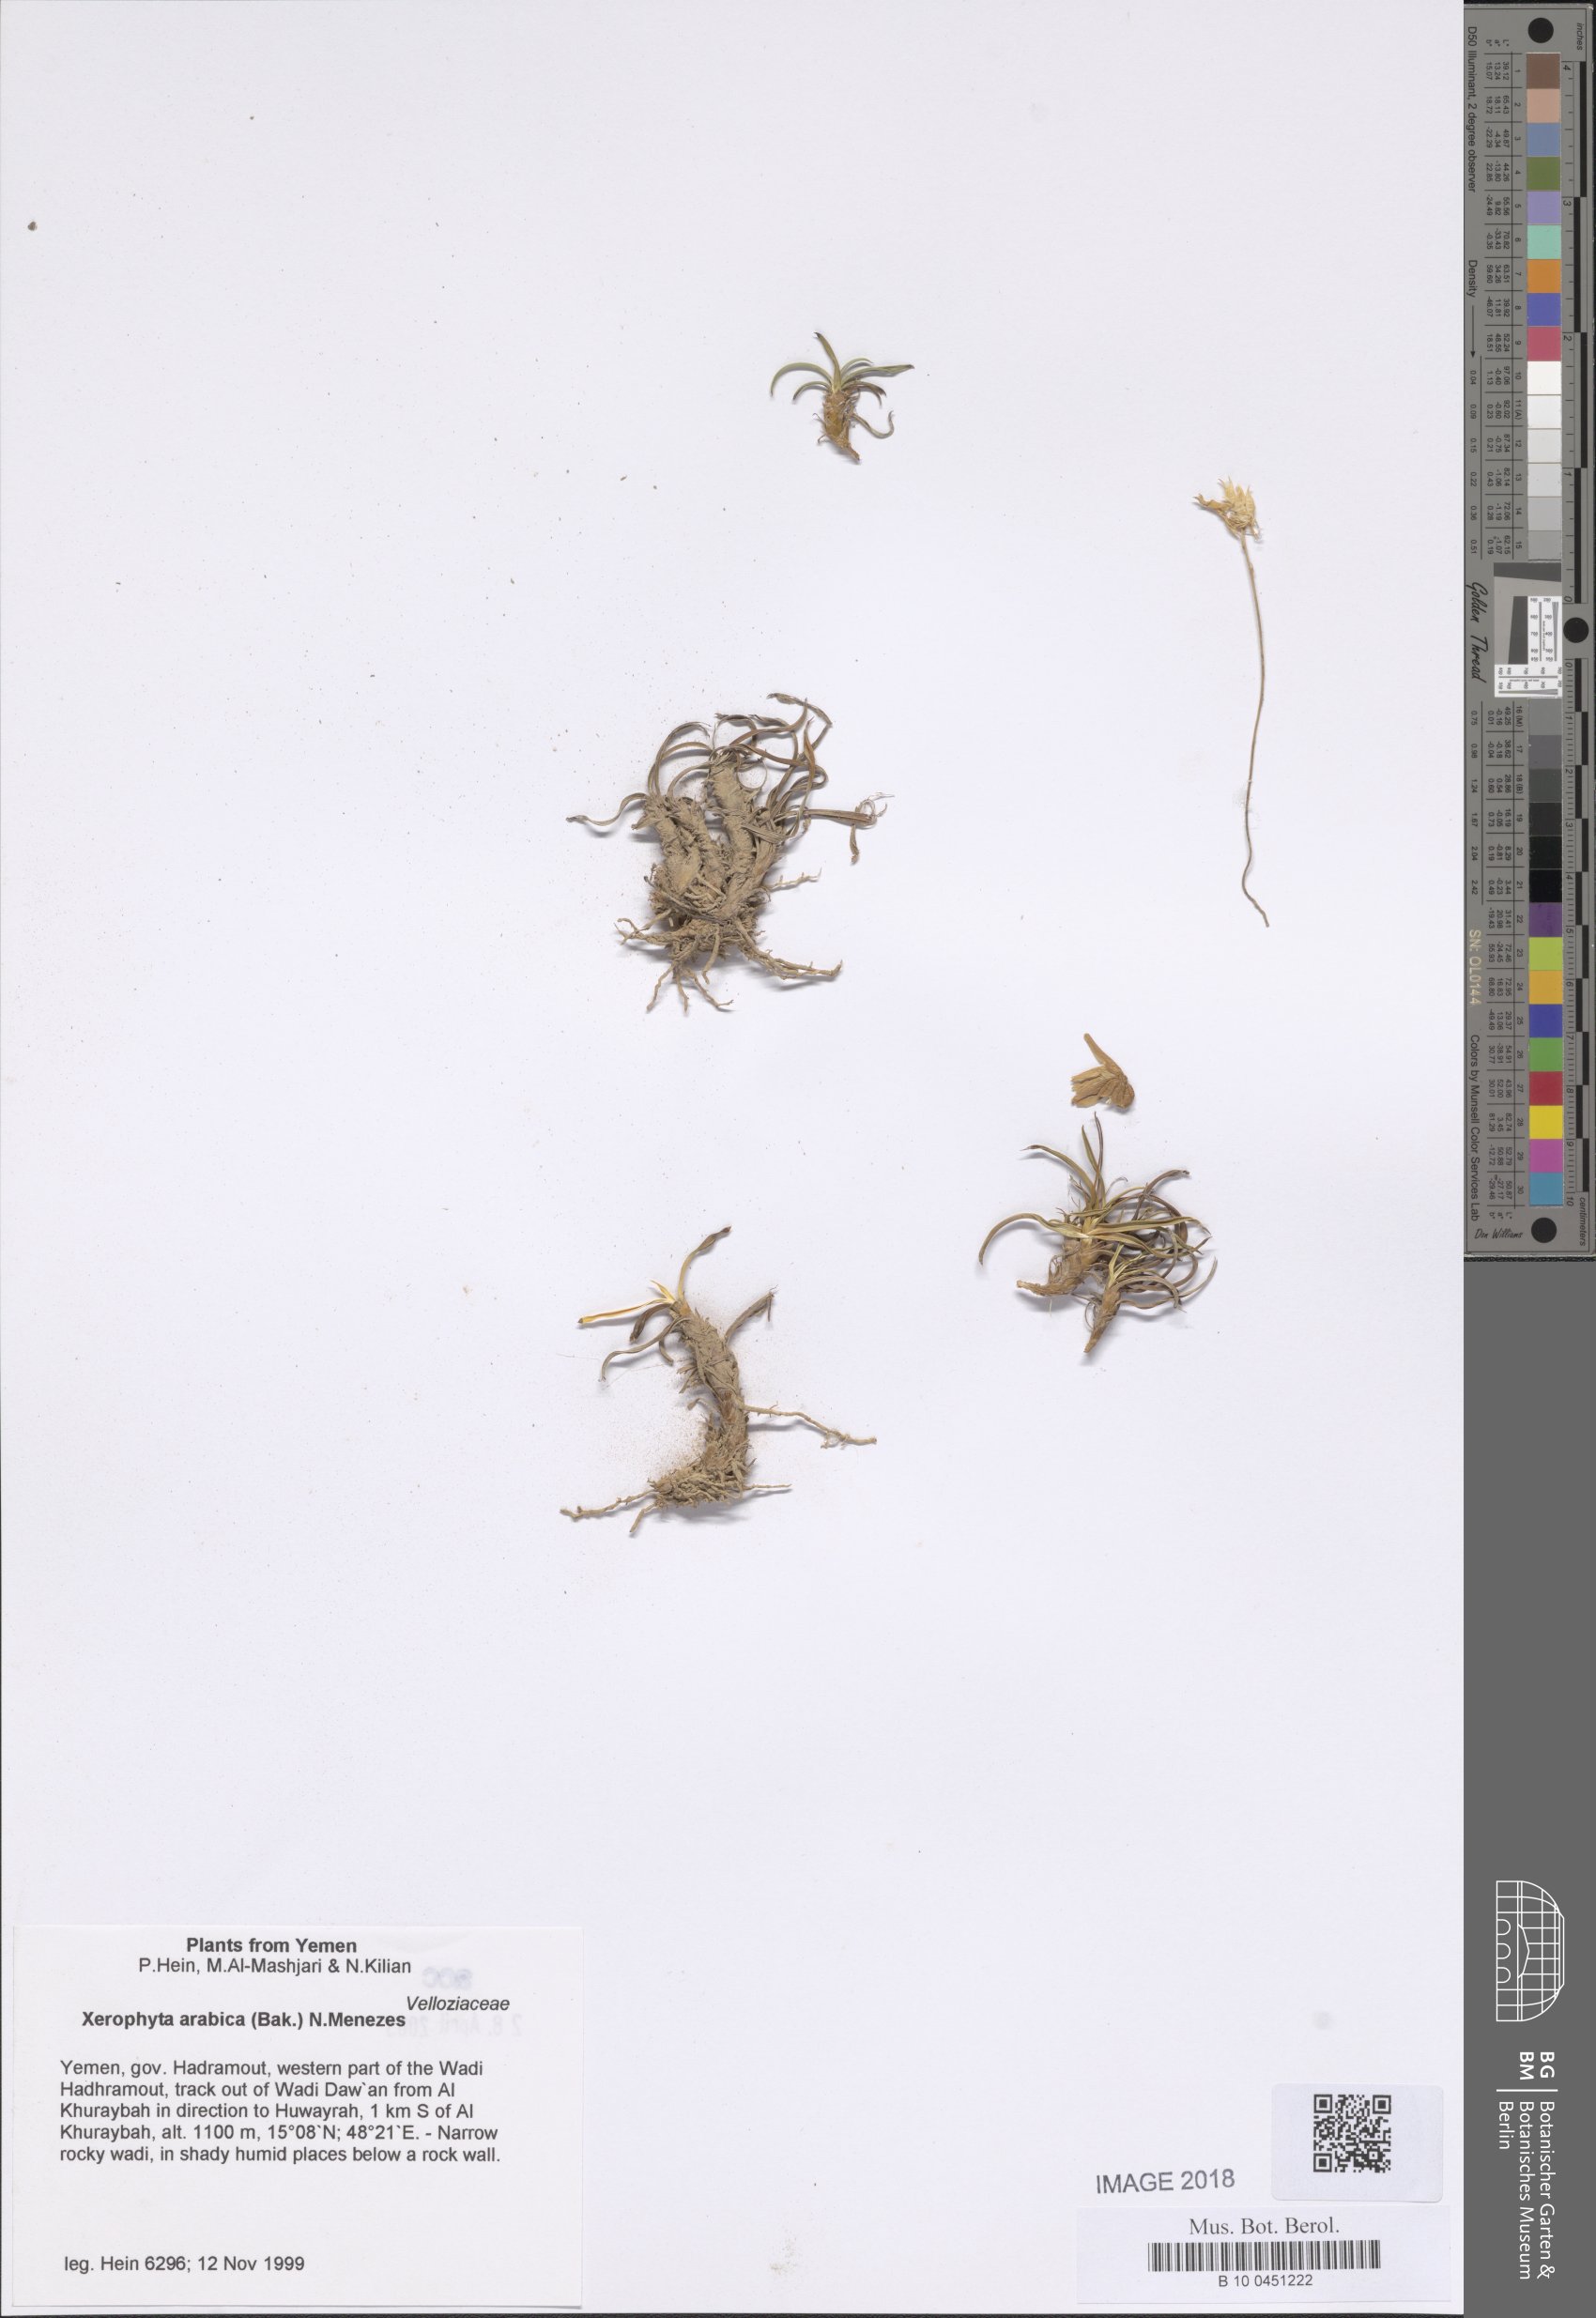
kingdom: Plantae
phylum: Tracheophyta
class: Liliopsida
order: Pandanales
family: Velloziaceae
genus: Xerophyta
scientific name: Xerophyta arabica
